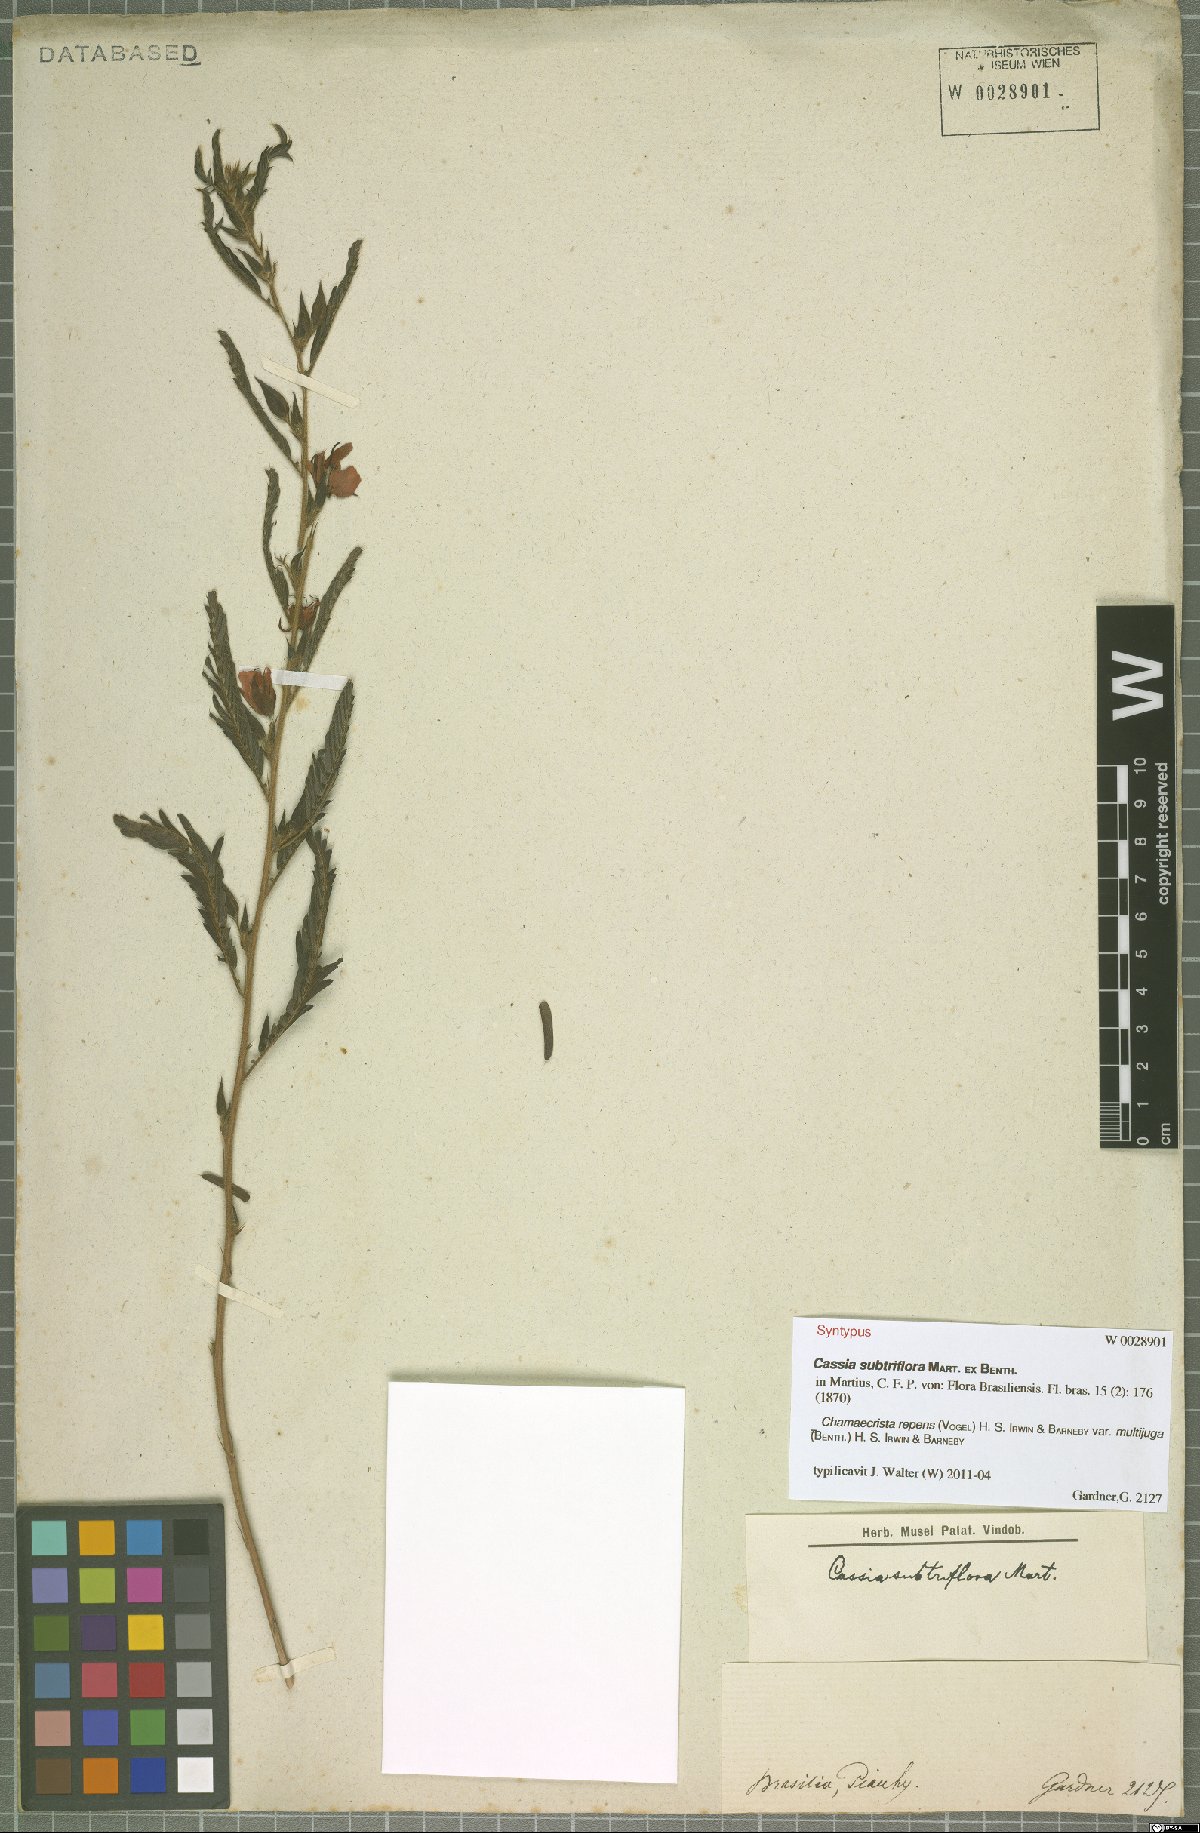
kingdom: Plantae
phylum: Tracheophyta
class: Magnoliopsida
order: Fabales
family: Fabaceae
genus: Chamaecrista
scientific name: Chamaecrista repens
